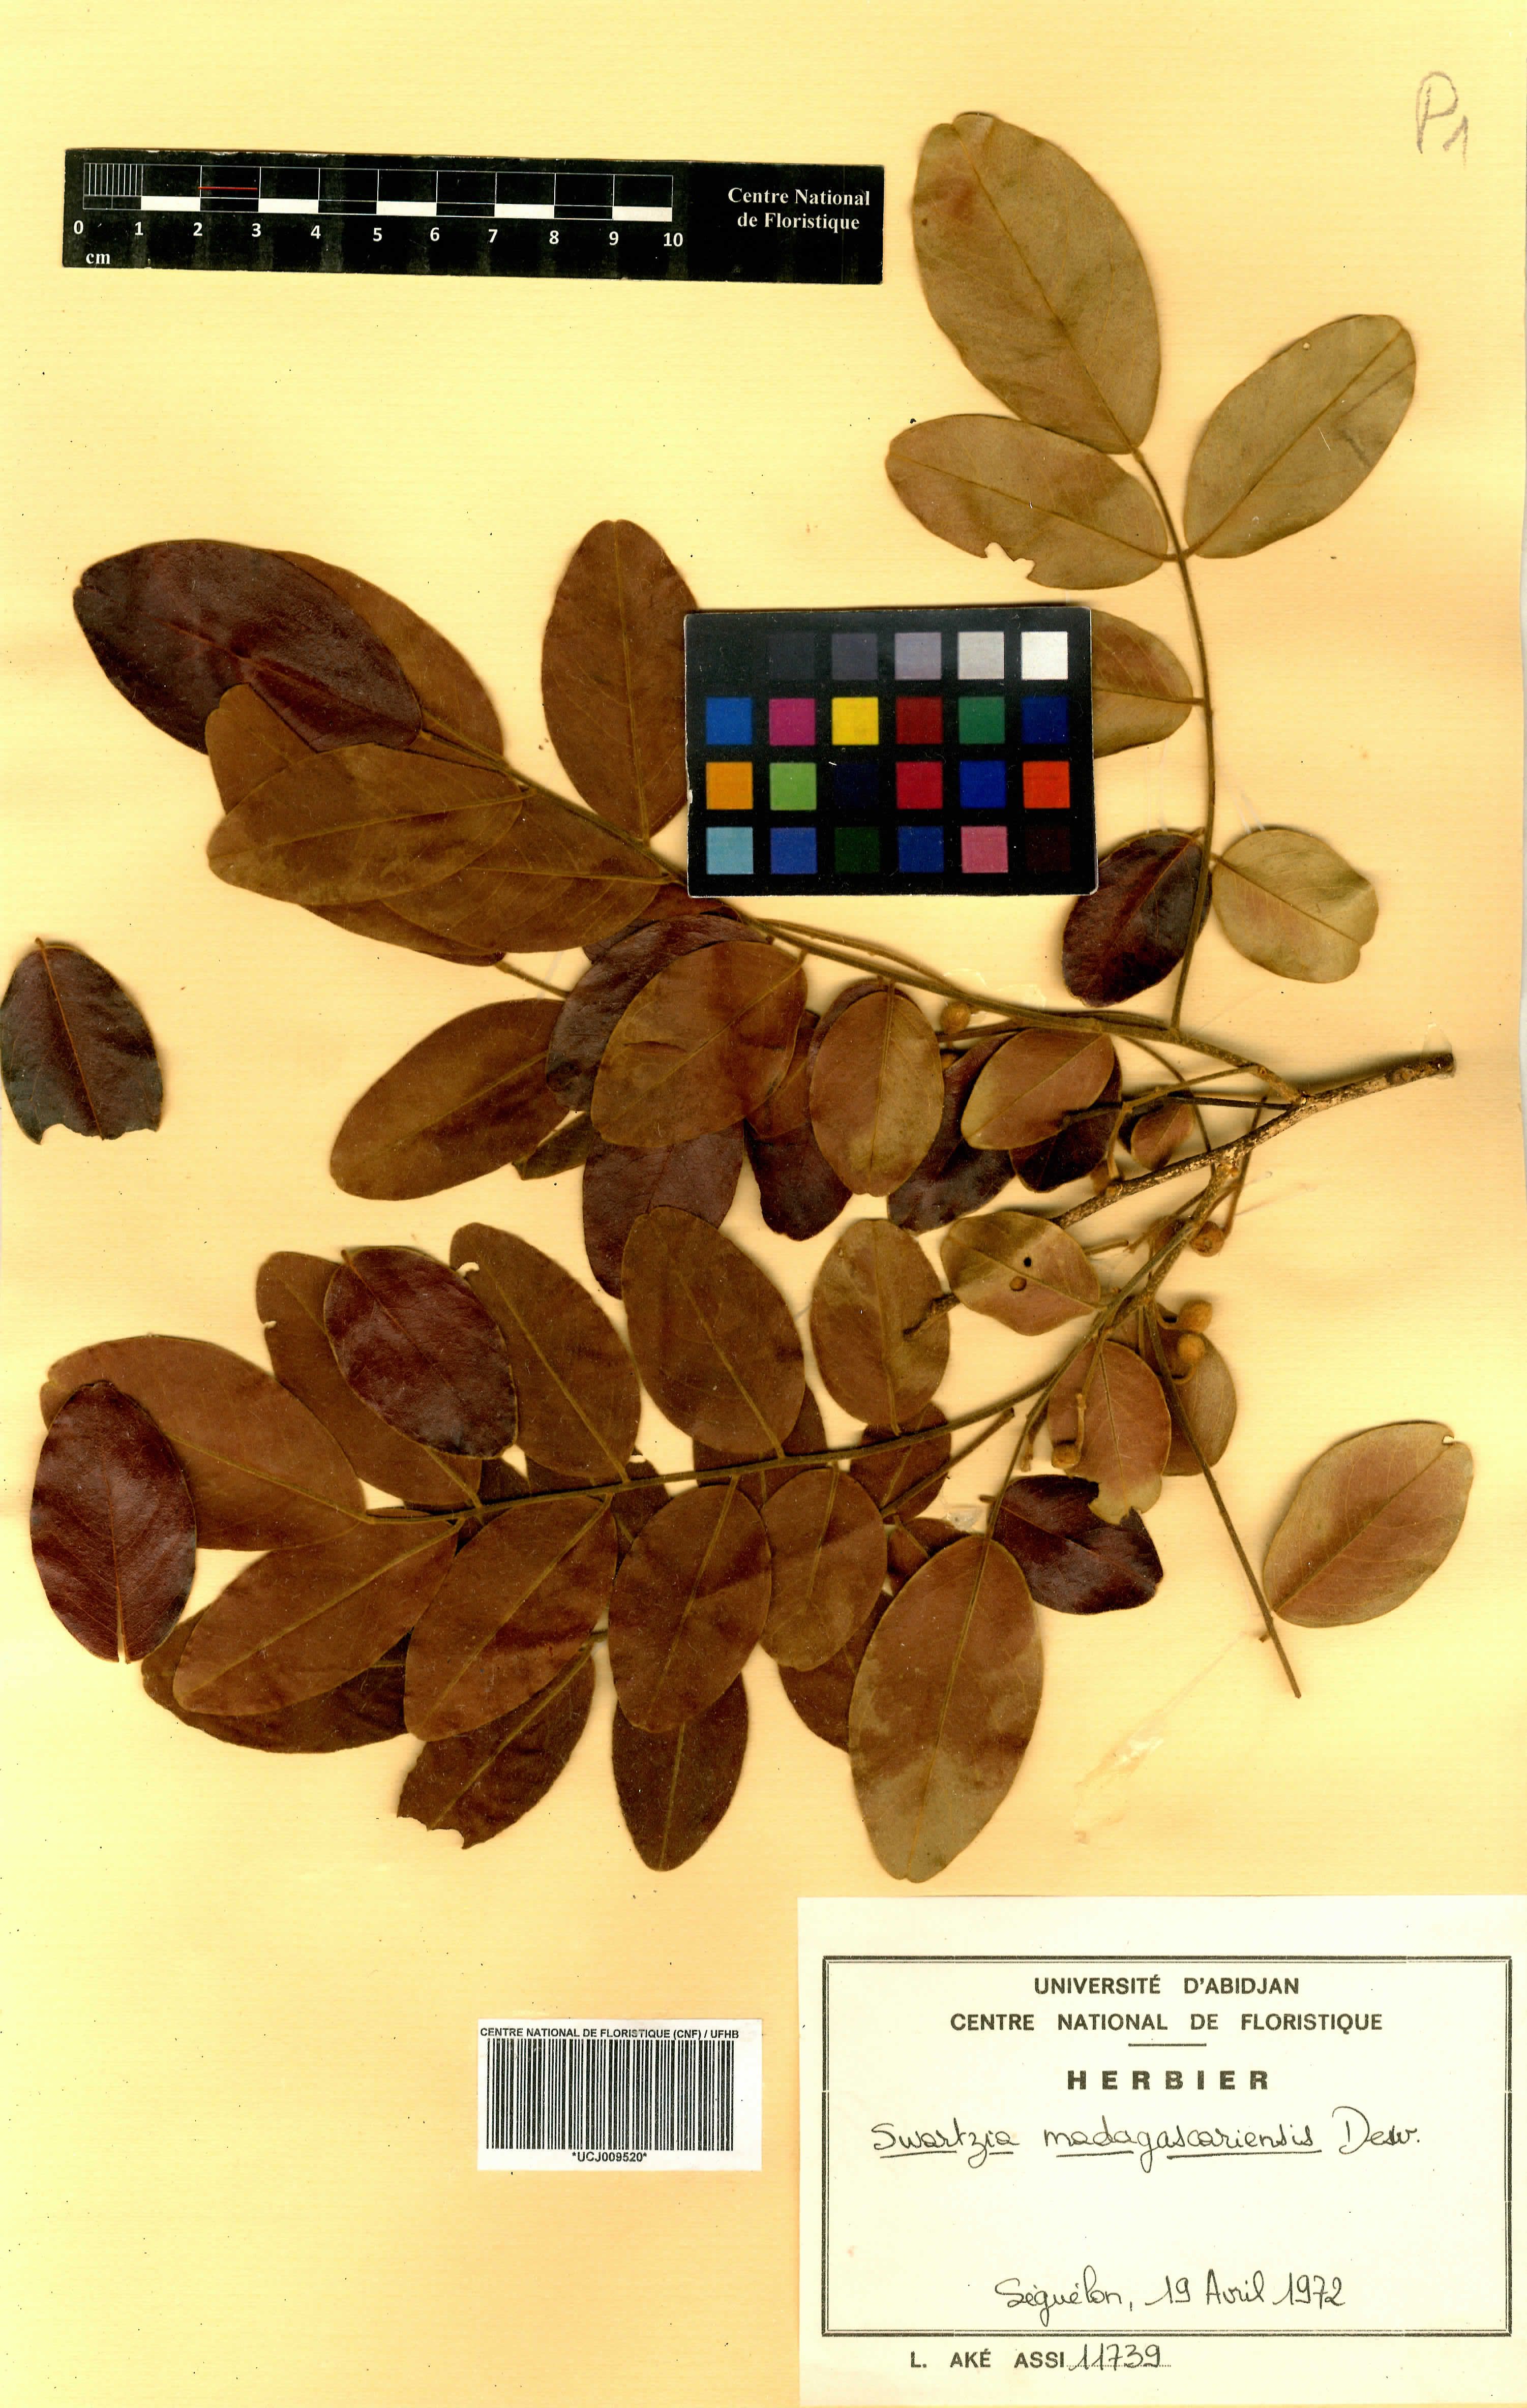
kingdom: Plantae
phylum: Tracheophyta
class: Magnoliopsida
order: Fabales
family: Fabaceae
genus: Bobgunnia
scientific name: Bobgunnia madagascariensis
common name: Snake bean plant
